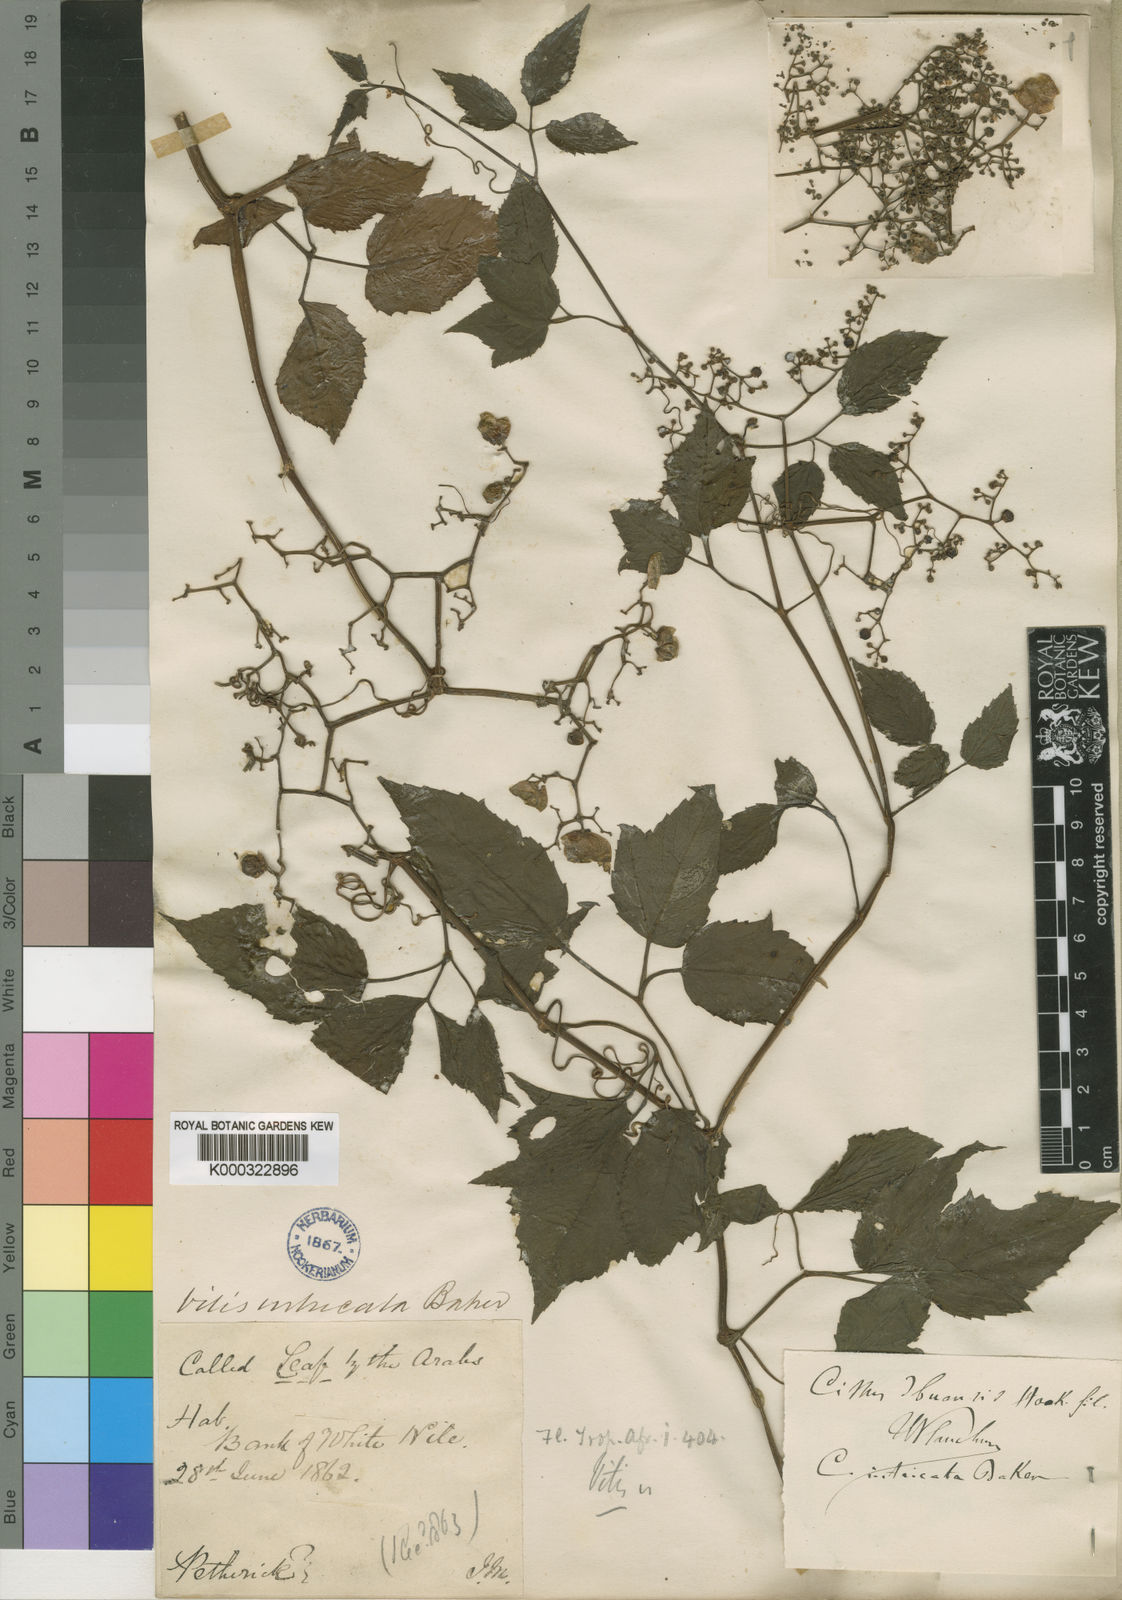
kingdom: Plantae
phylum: Tracheophyta
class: Magnoliopsida
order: Vitales
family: Vitaceae
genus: Afrocayratia
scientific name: Afrocayratia ibuensis
